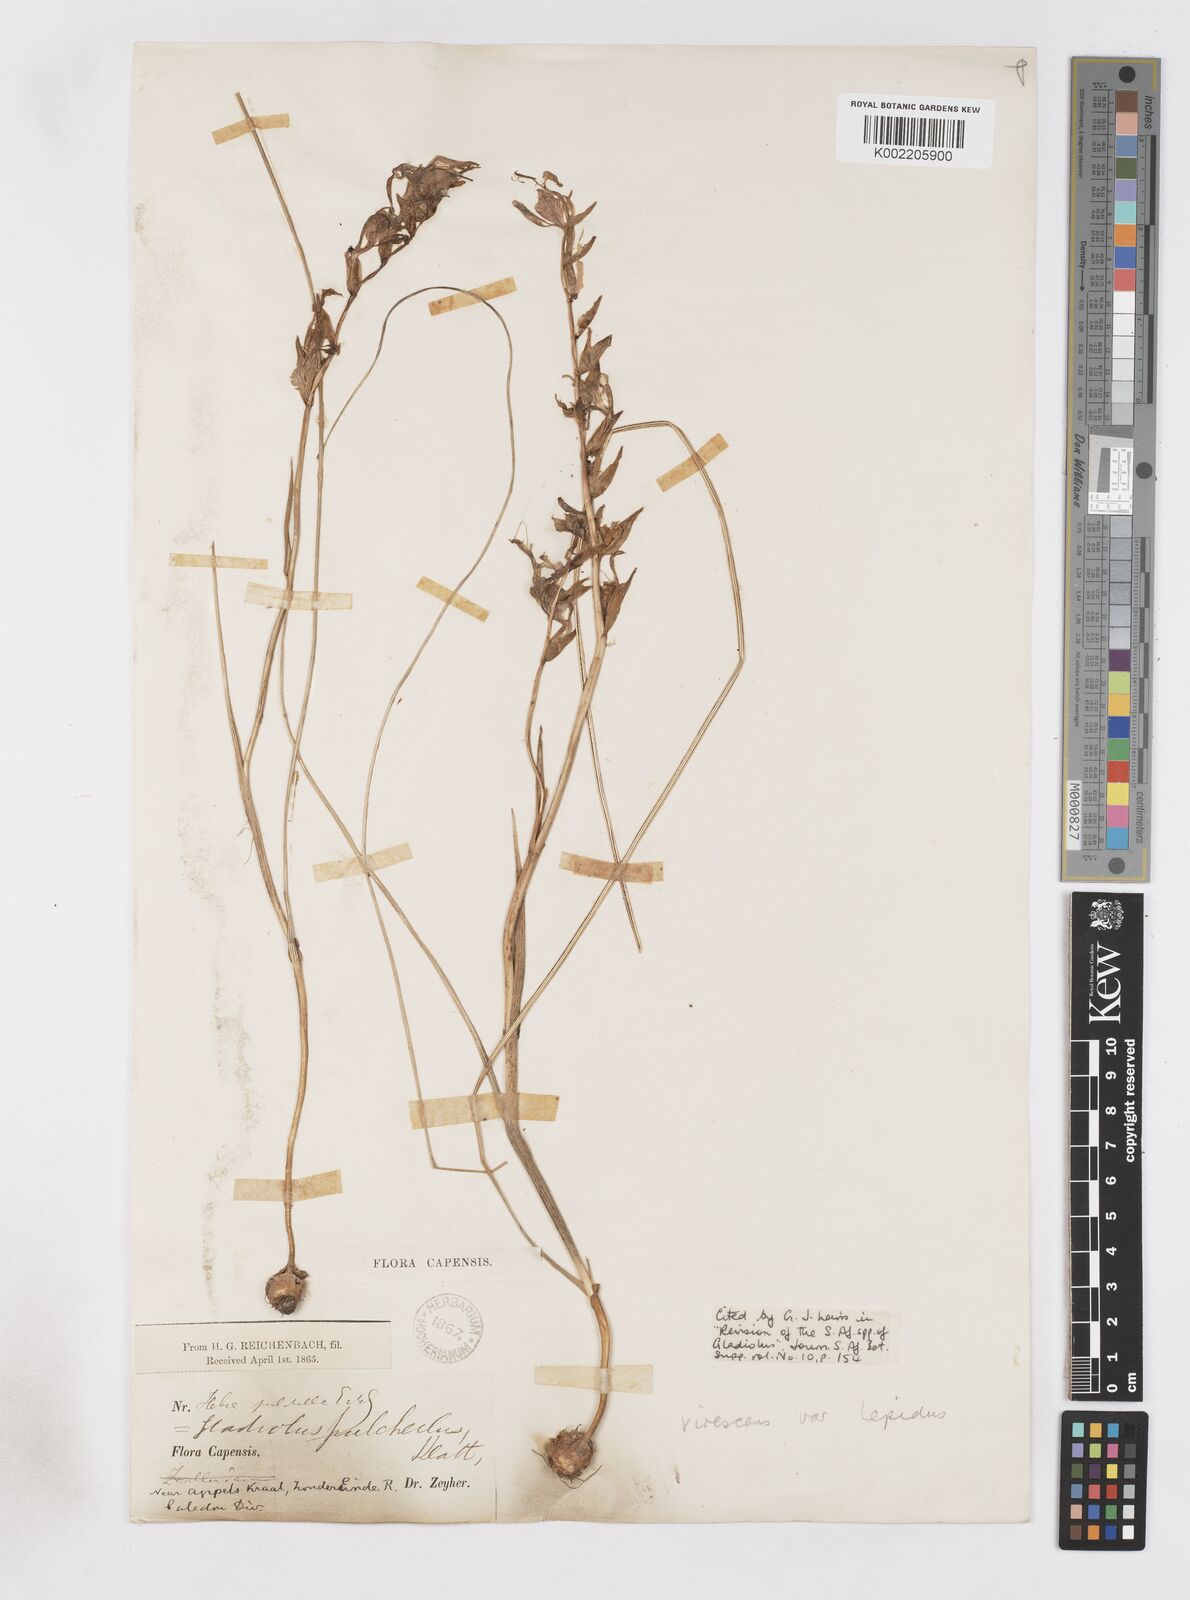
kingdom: Plantae
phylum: Tracheophyta
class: Liliopsida
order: Asparagales
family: Iridaceae
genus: Gladiolus
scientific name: Gladiolus virescens
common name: Yellow kalkoentjie
